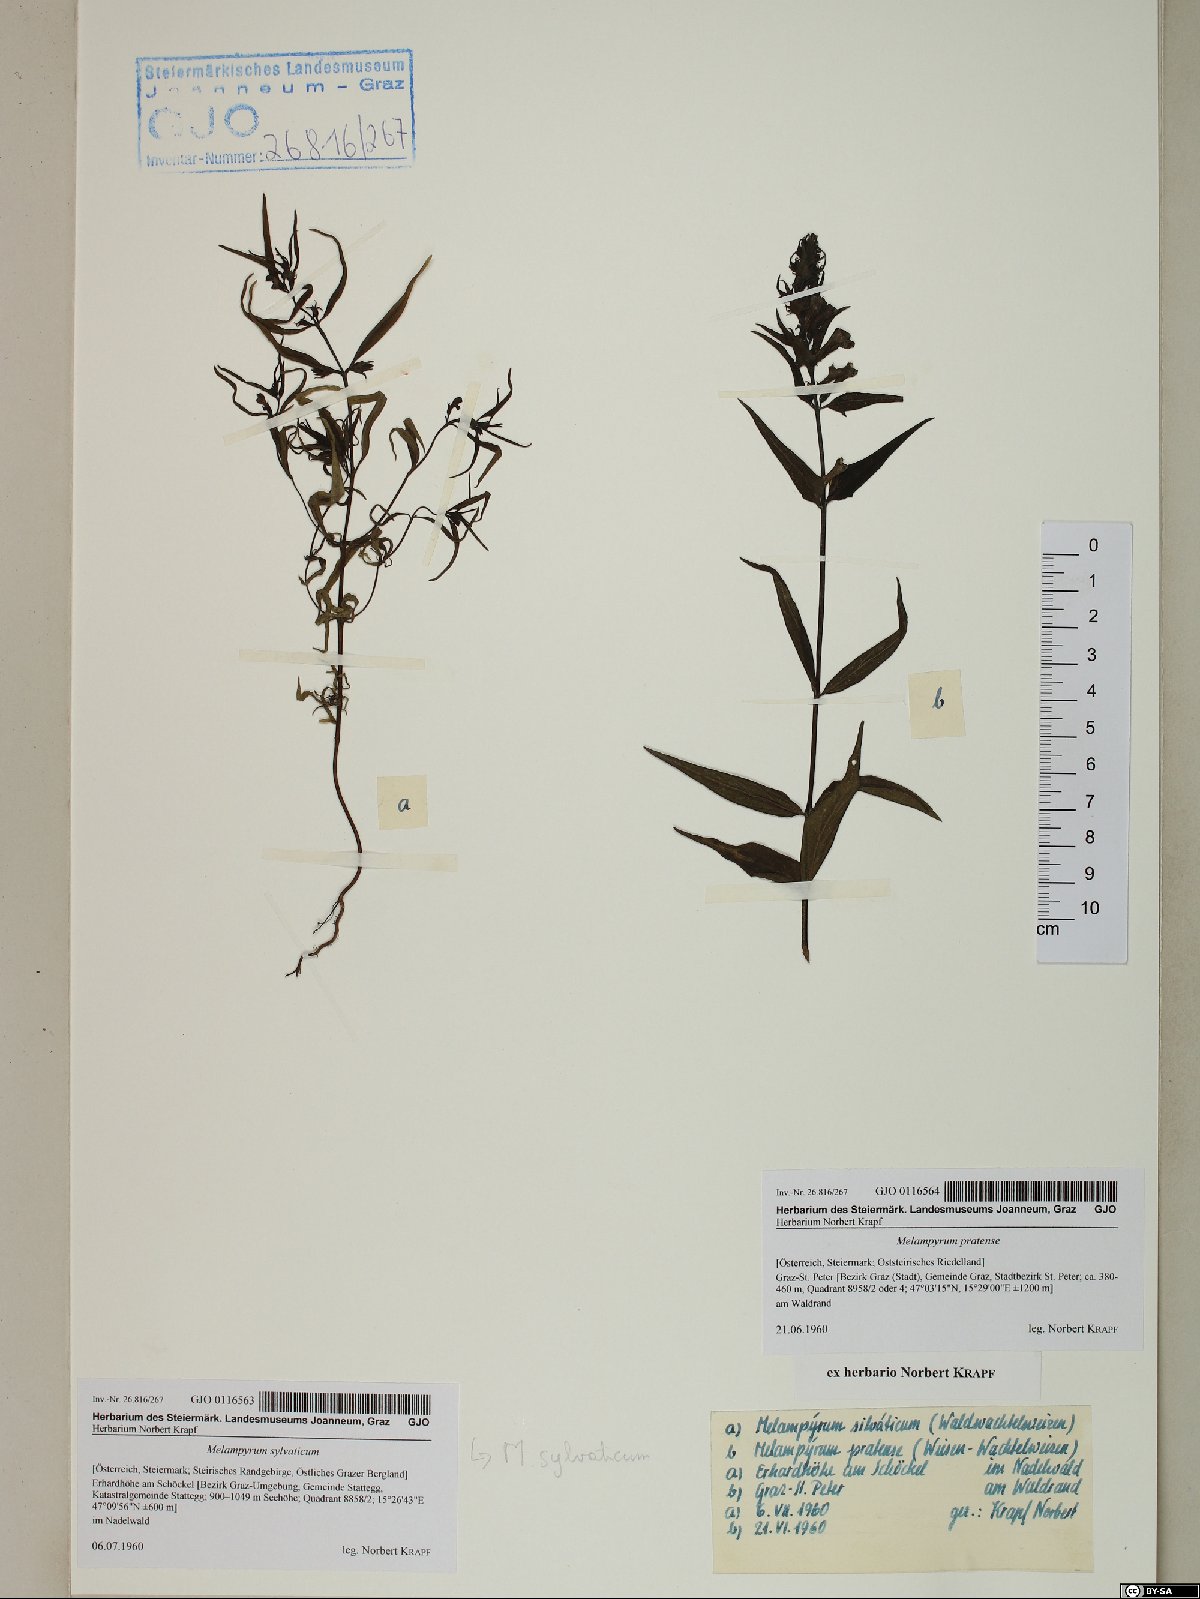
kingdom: Plantae
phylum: Tracheophyta
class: Magnoliopsida
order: Lamiales
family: Orobanchaceae
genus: Melampyrum
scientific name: Melampyrum pratense
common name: Common cow-wheat
